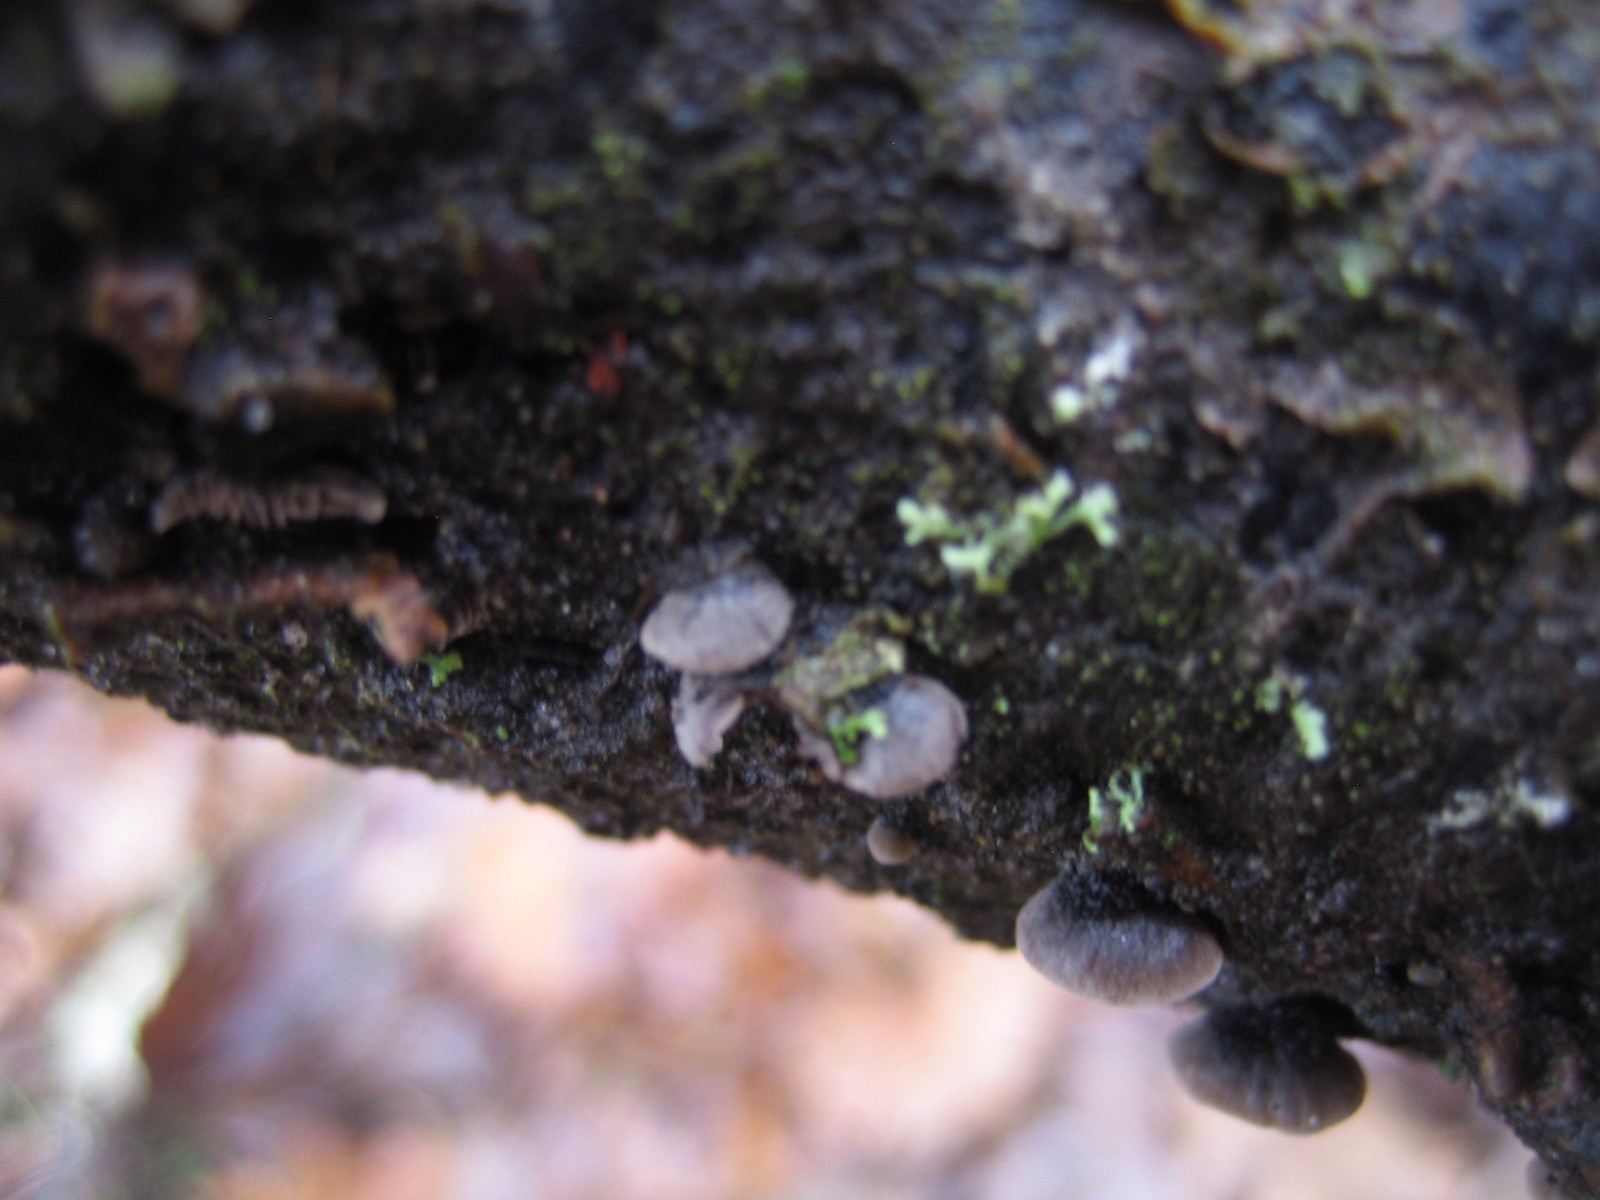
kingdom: Fungi
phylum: Basidiomycota
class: Agaricomycetes
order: Agaricales
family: Pleurotaceae
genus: Resupinatus
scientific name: Resupinatus trichotis
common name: mørkfiltet barkhat
